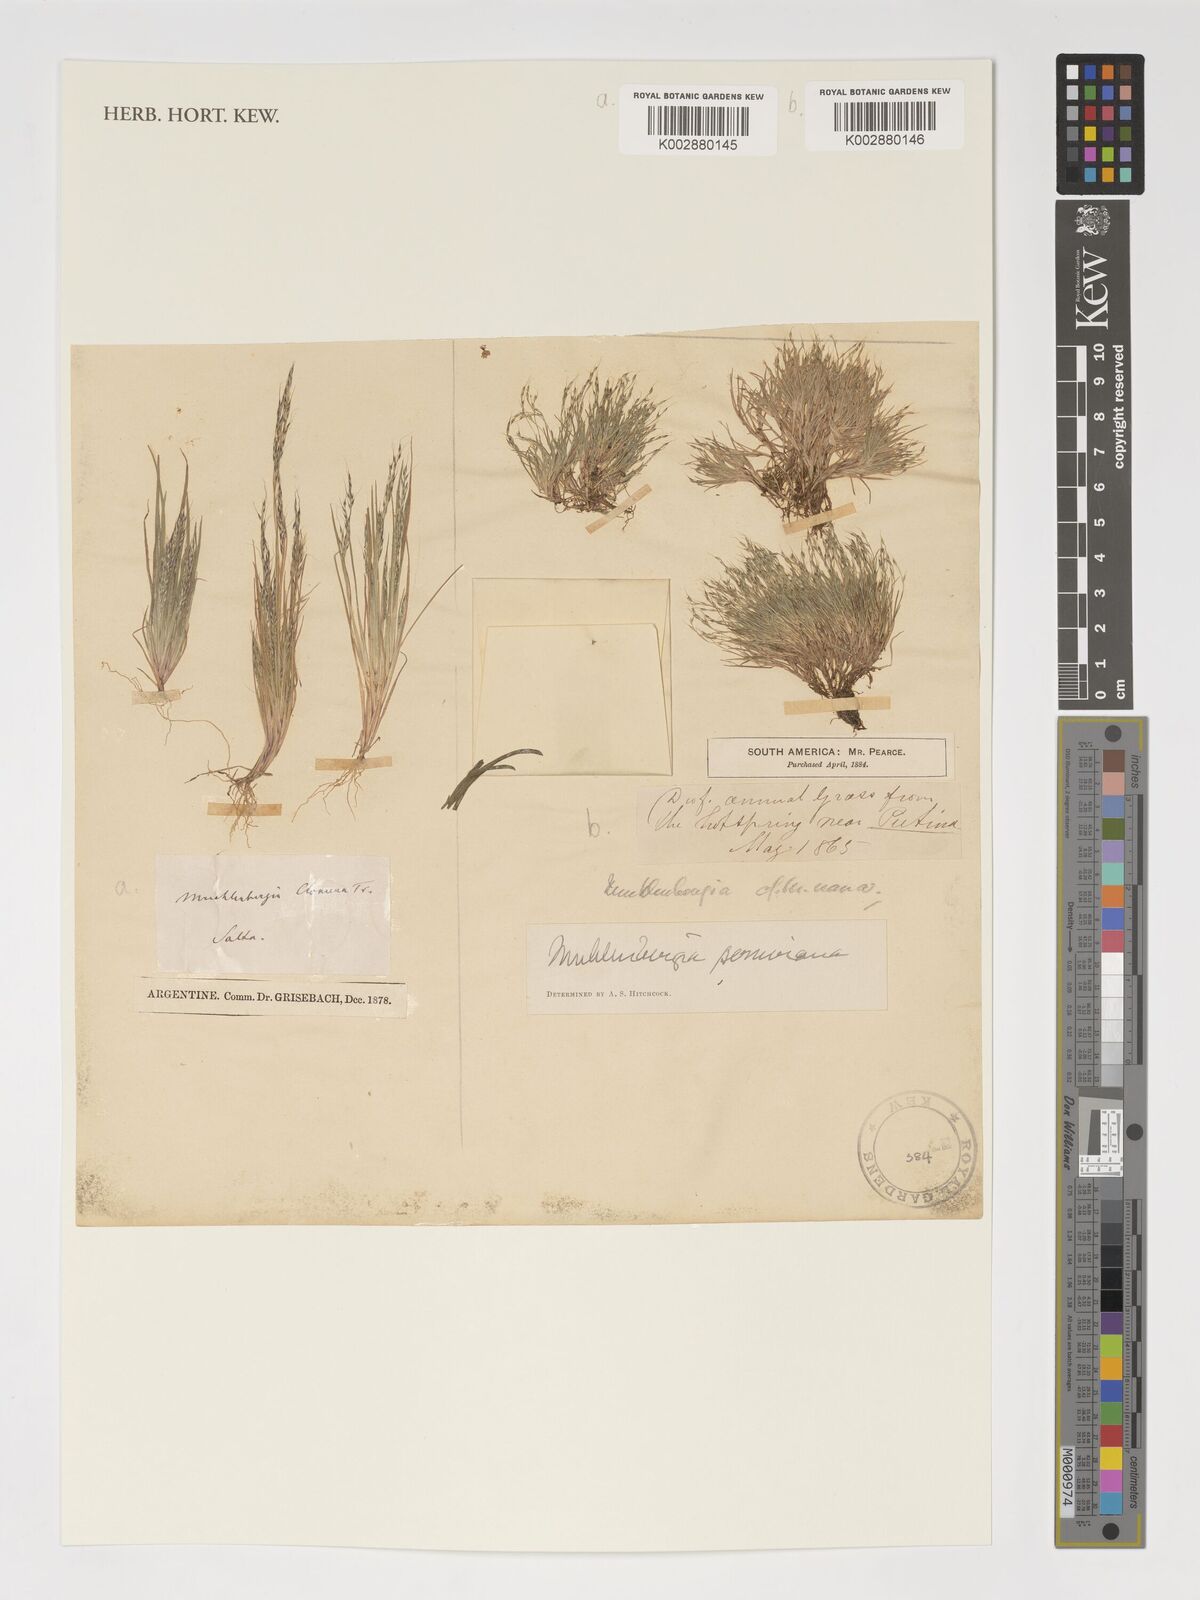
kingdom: Plantae
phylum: Tracheophyta
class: Liliopsida
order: Poales
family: Poaceae
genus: Muhlenbergia
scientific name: Muhlenbergia peruviana
